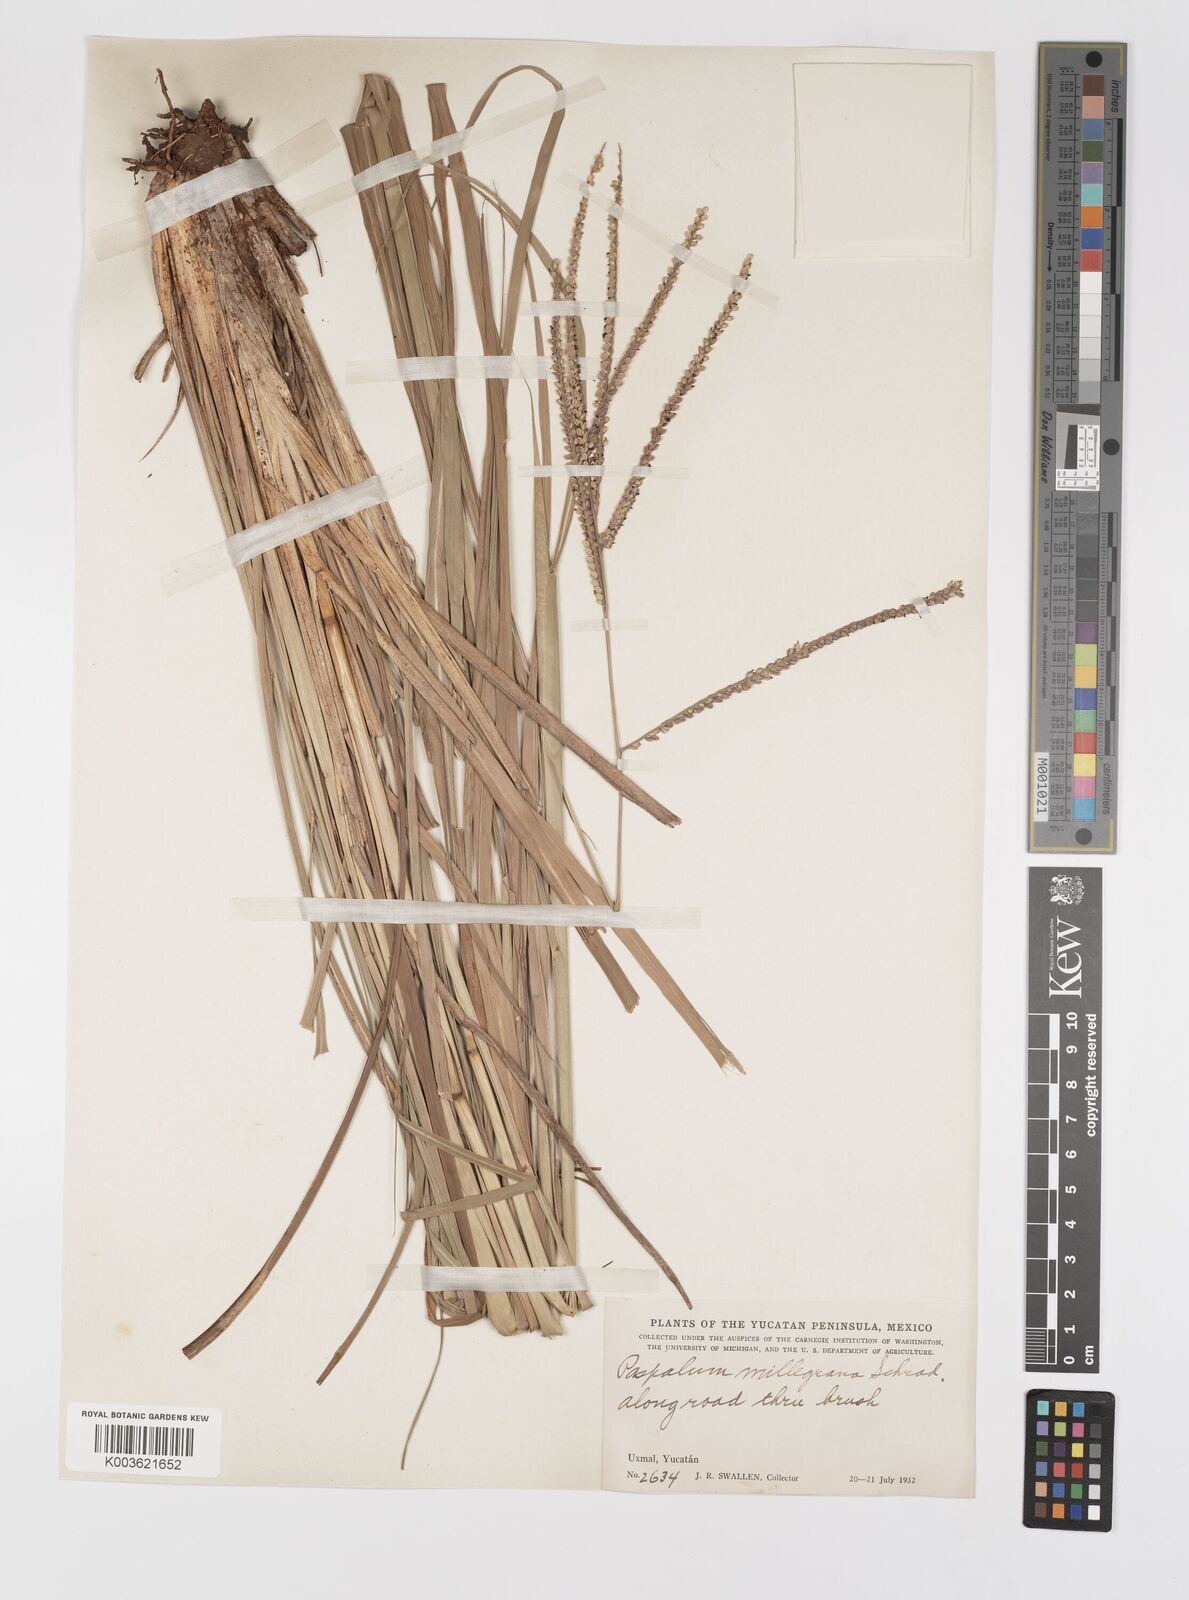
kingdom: Plantae
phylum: Tracheophyta
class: Liliopsida
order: Poales
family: Poaceae
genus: Paspalum
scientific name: Paspalum millegranum
